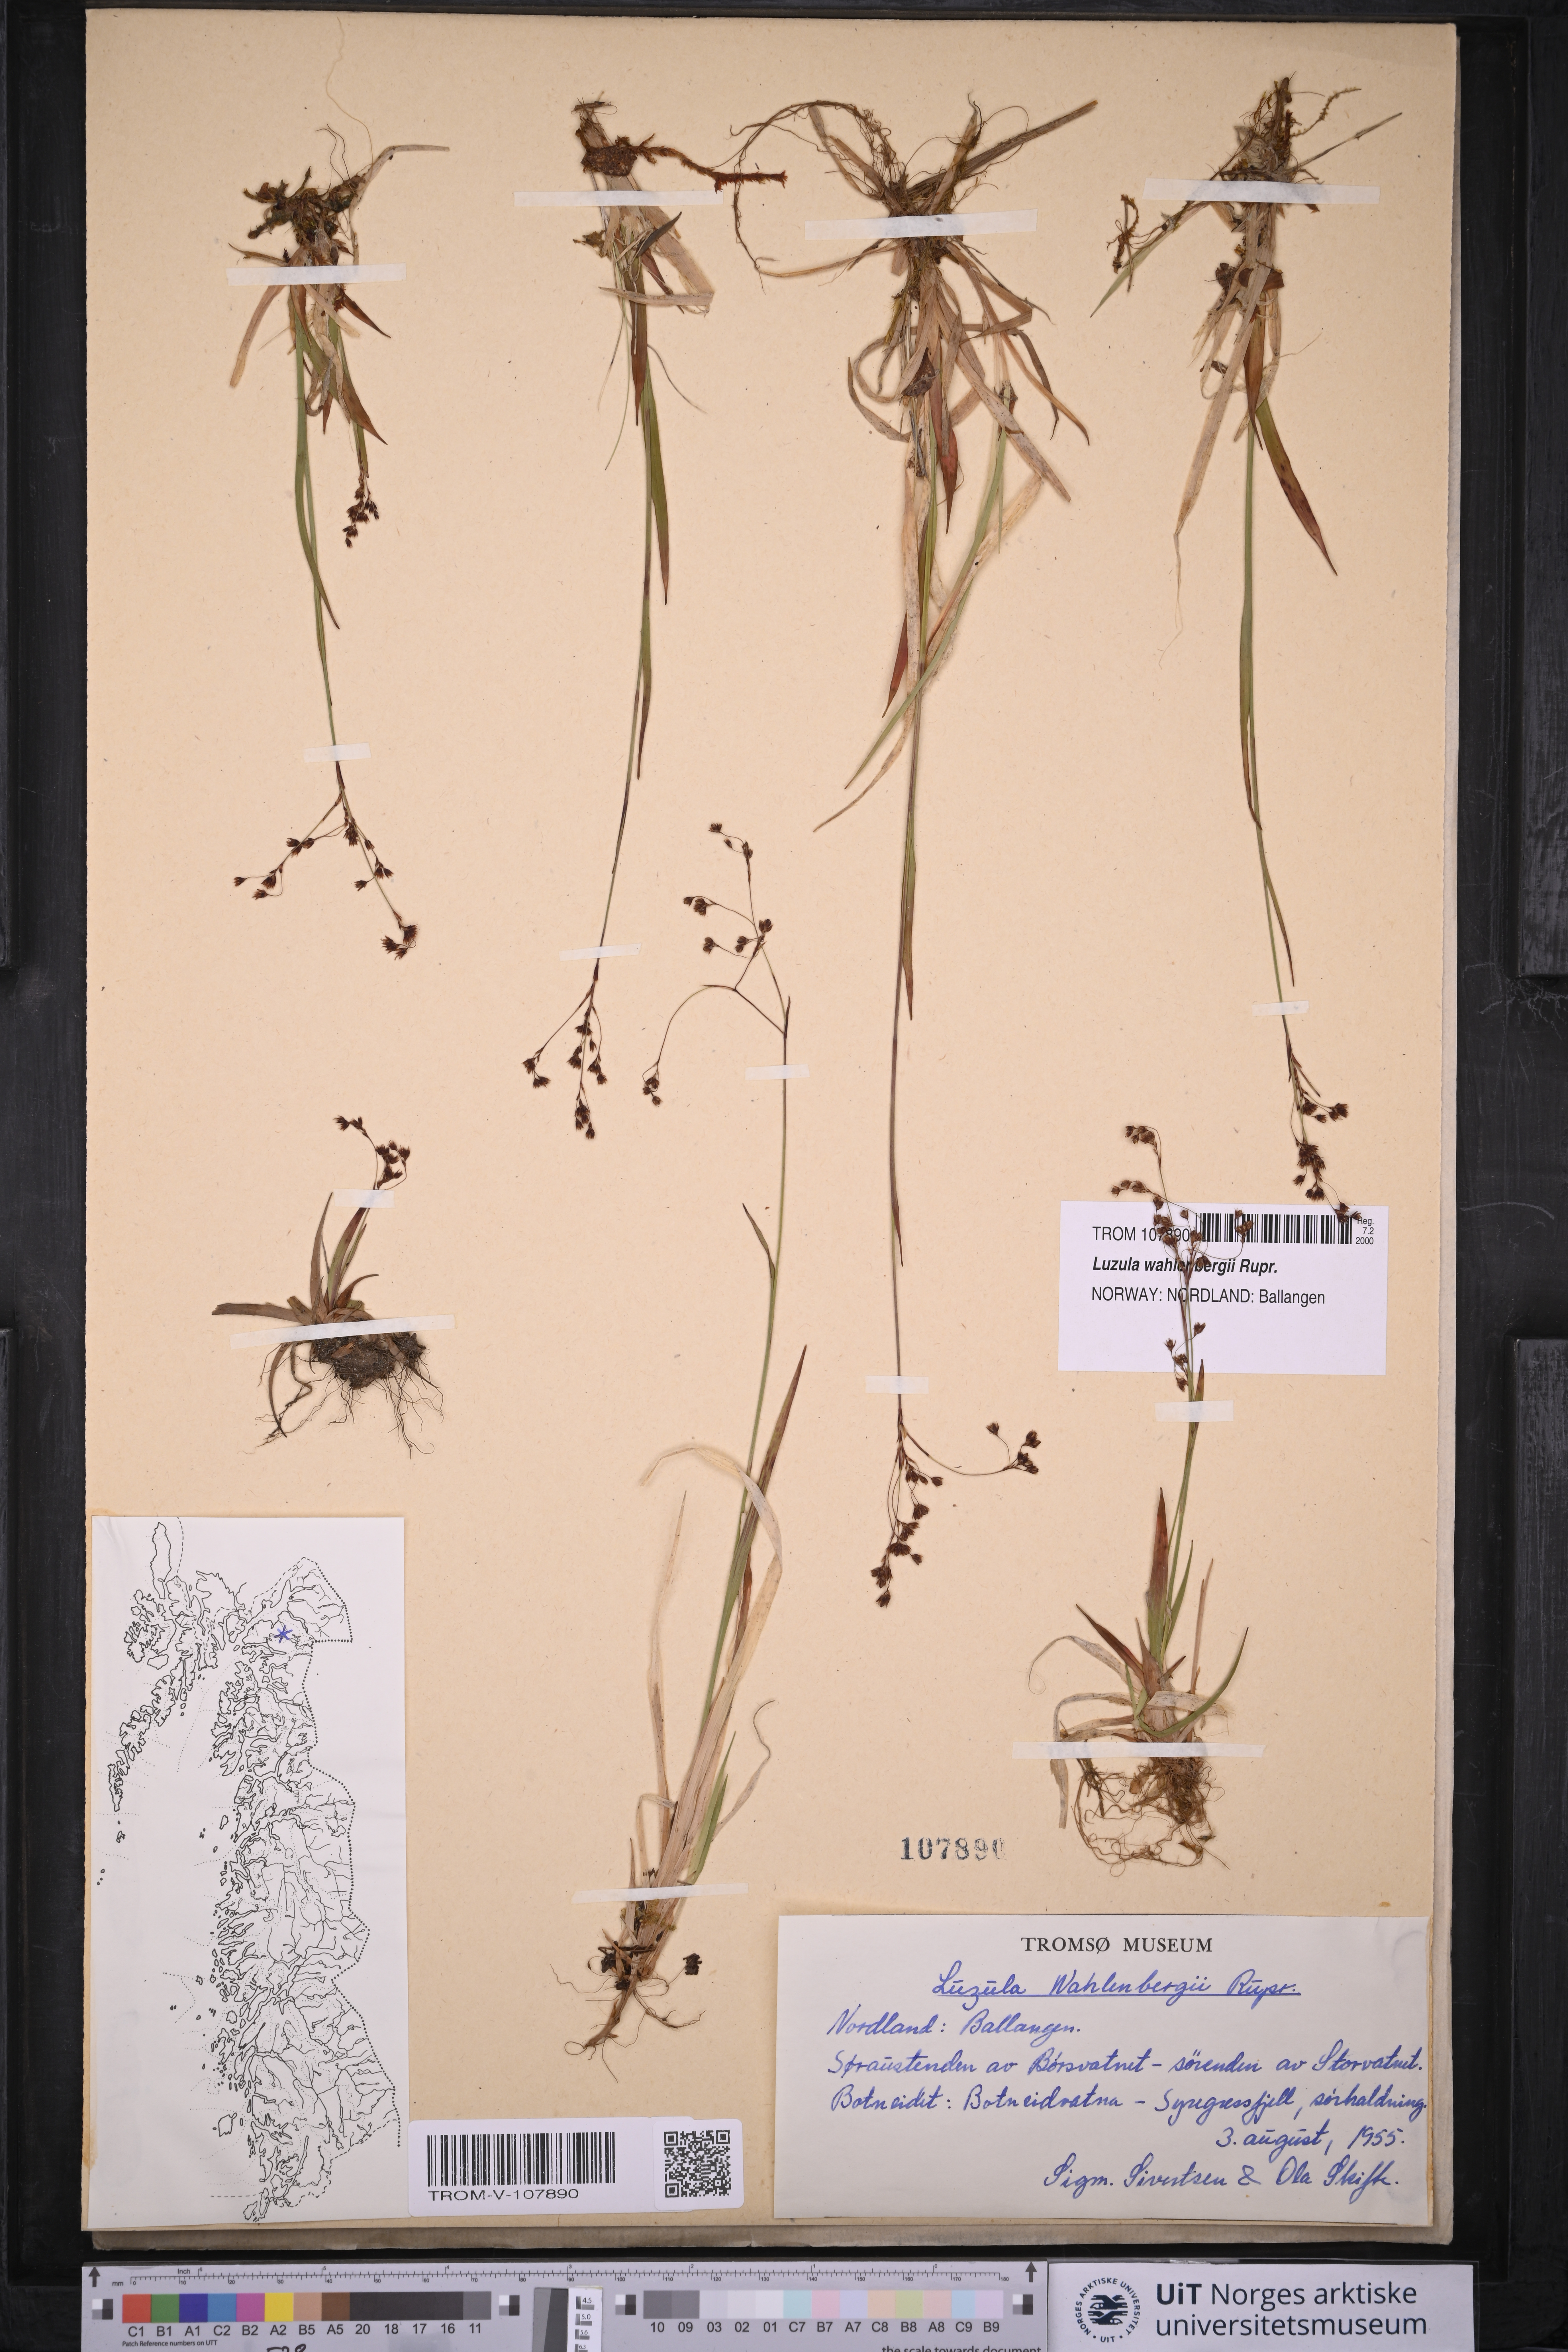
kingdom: Plantae
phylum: Tracheophyta
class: Liliopsida
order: Poales
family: Juncaceae
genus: Luzula
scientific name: Luzula wahlenbergii
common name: Wahlenberg's wood-rush
